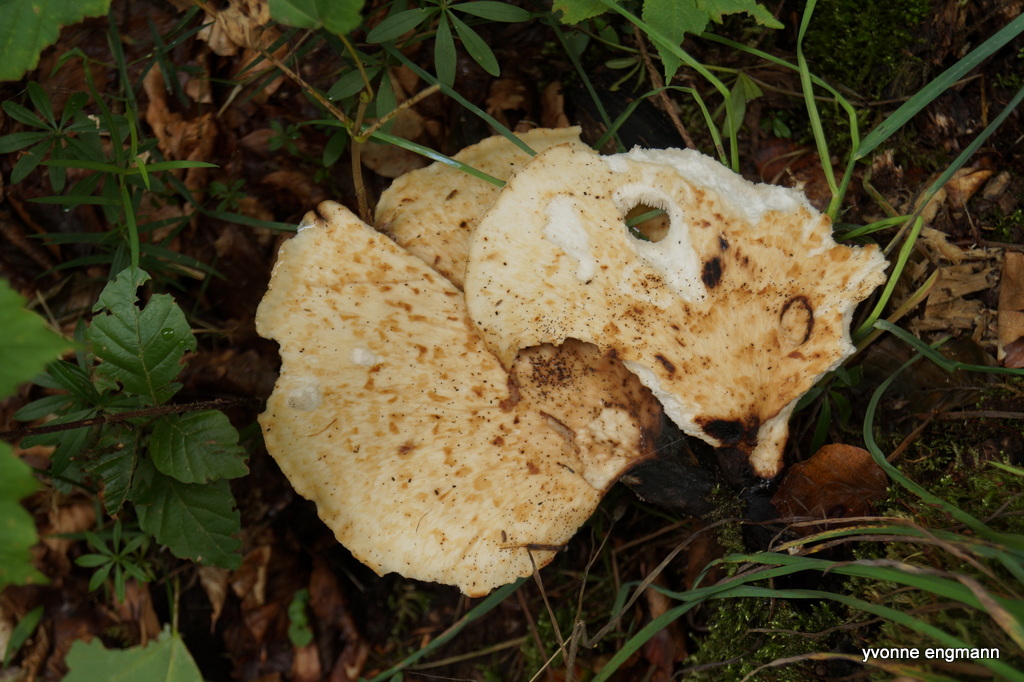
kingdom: Fungi
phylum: Basidiomycota
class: Agaricomycetes
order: Polyporales
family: Polyporaceae
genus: Cerioporus
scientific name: Cerioporus squamosus
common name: skællet stilkporesvamp
